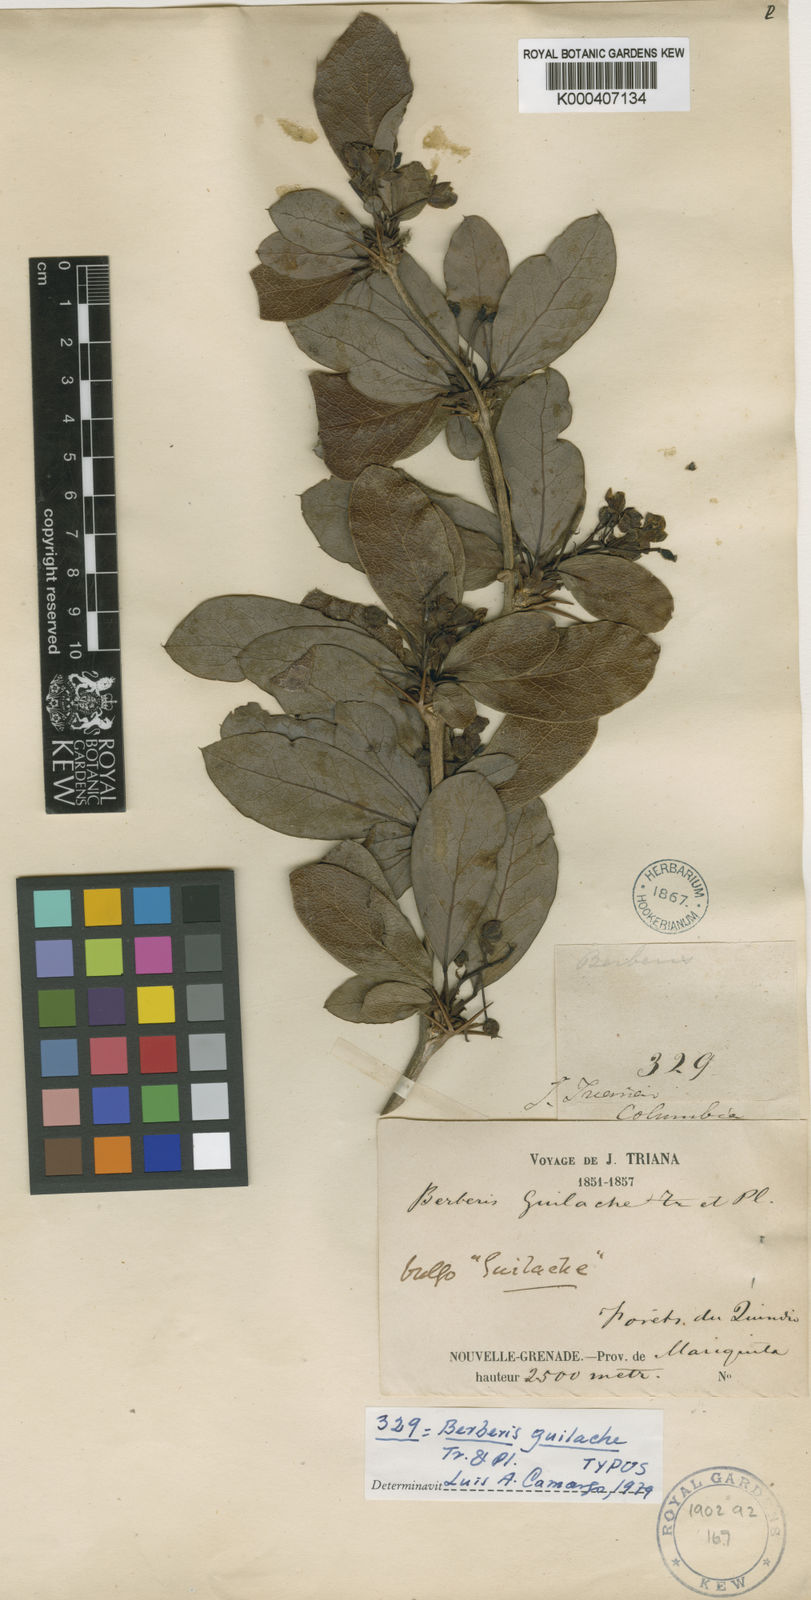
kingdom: Plantae
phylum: Tracheophyta
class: Magnoliopsida
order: Ranunculales
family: Berberidaceae
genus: Berberis
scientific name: Berberis guilache
